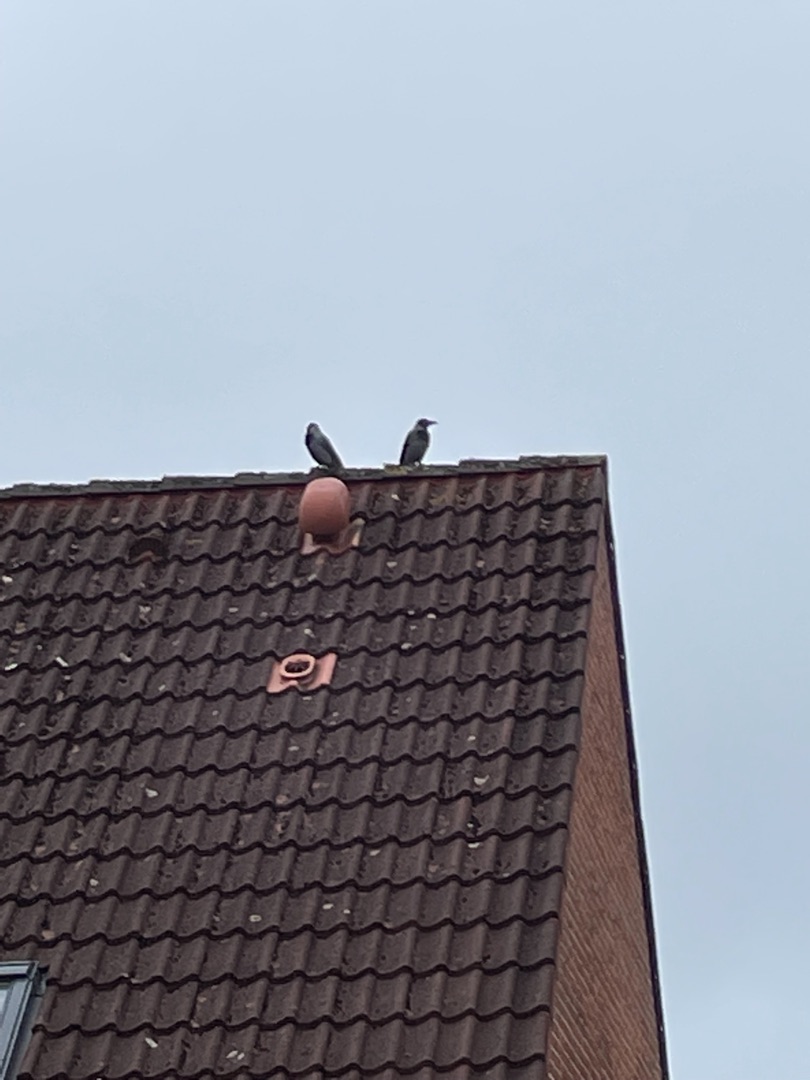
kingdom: Animalia
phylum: Chordata
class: Aves
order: Passeriformes
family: Corvidae
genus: Corvus
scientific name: Corvus cornix
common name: Gråkrage
